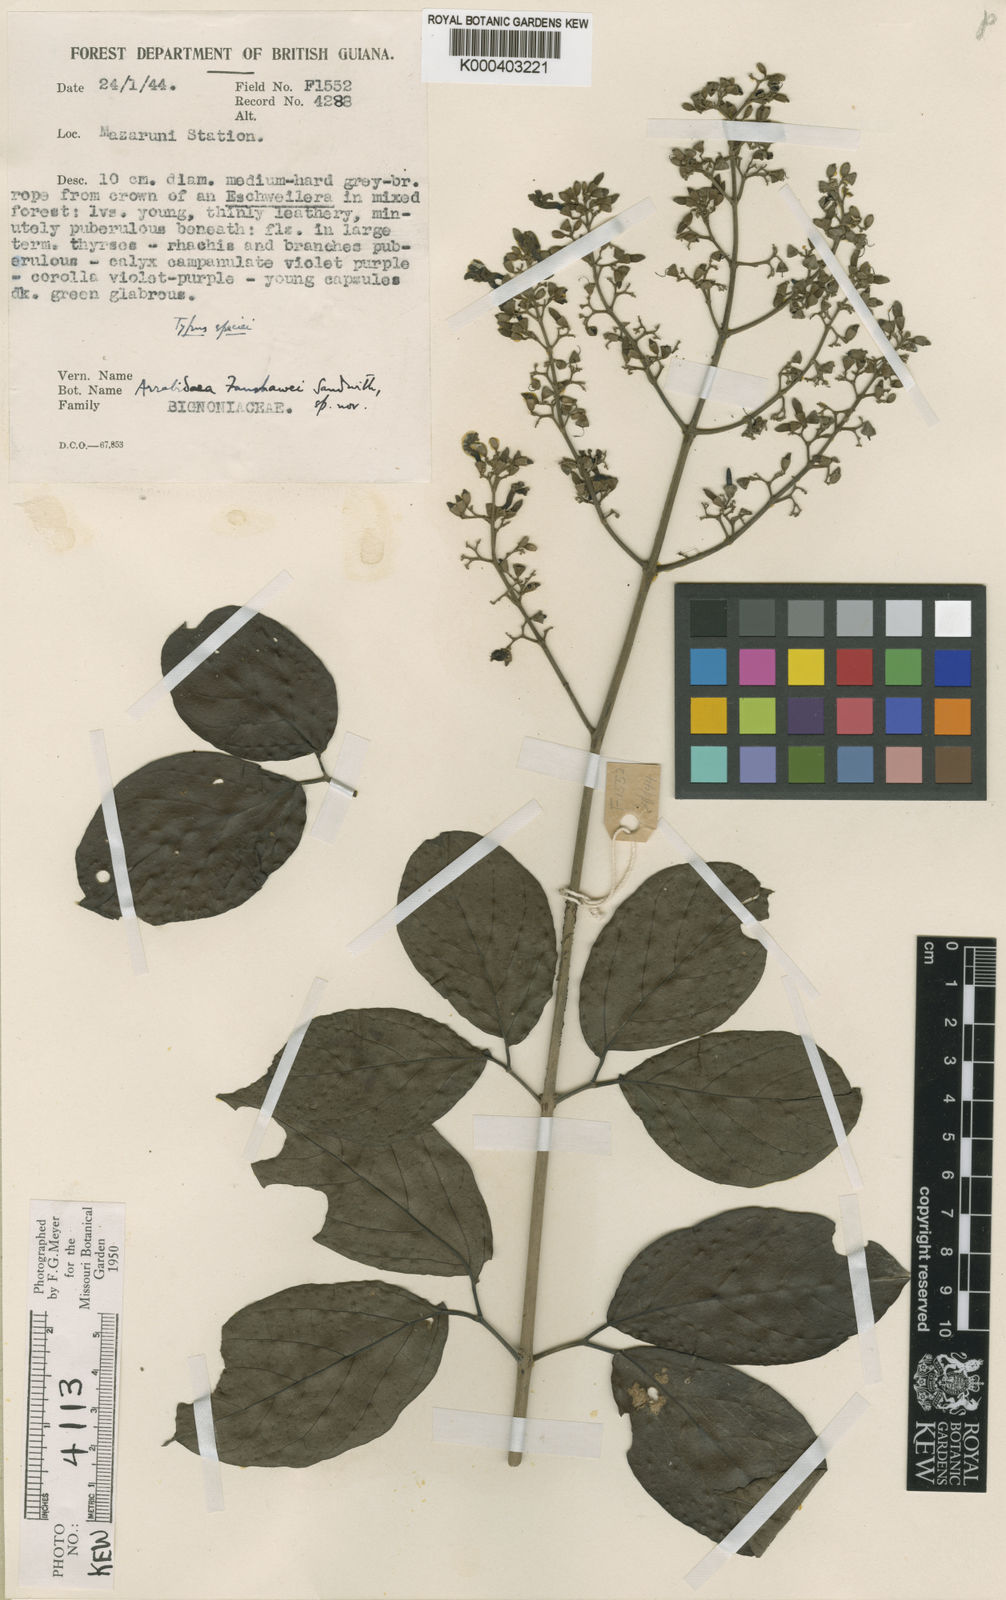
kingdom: Plantae
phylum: Tracheophyta
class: Magnoliopsida
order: Lamiales
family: Bignoniaceae
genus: Fridericia
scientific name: Fridericia fanshawei
